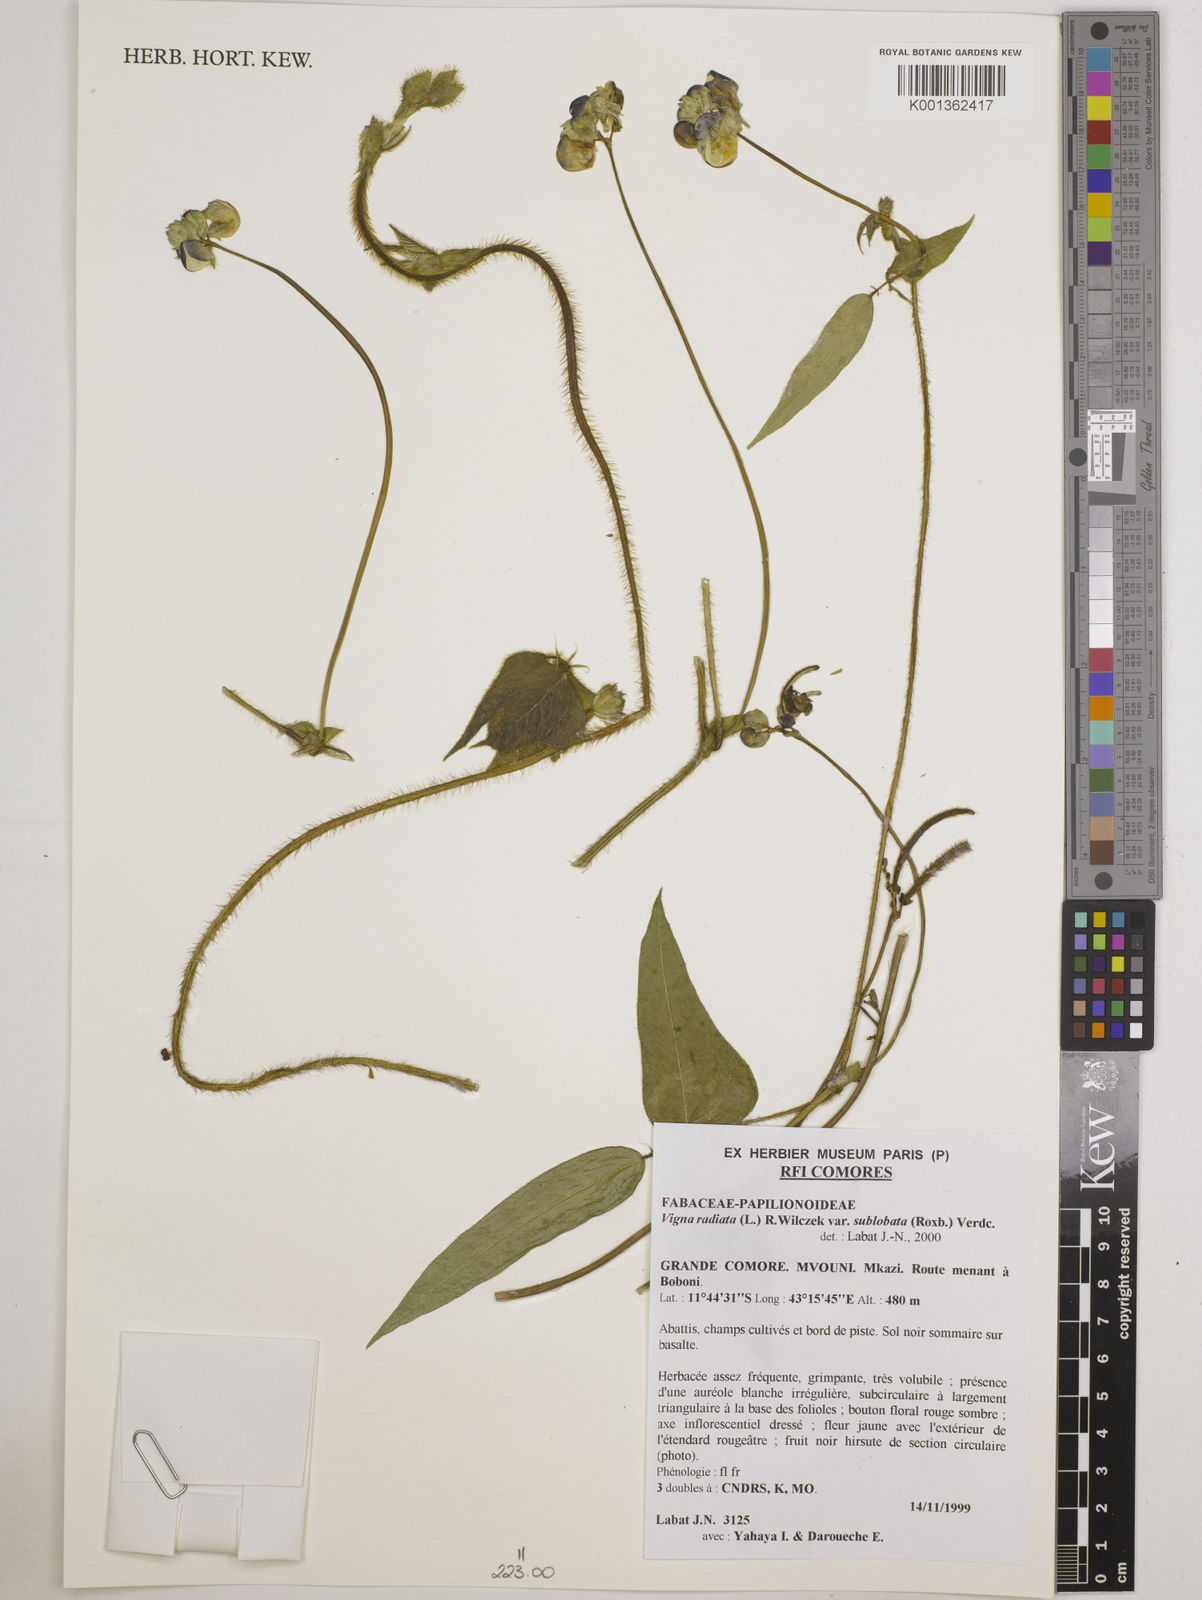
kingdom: Plantae
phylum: Tracheophyta
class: Magnoliopsida
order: Fabales
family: Fabaceae
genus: Vigna
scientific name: Vigna radiata
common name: Mung-bean
